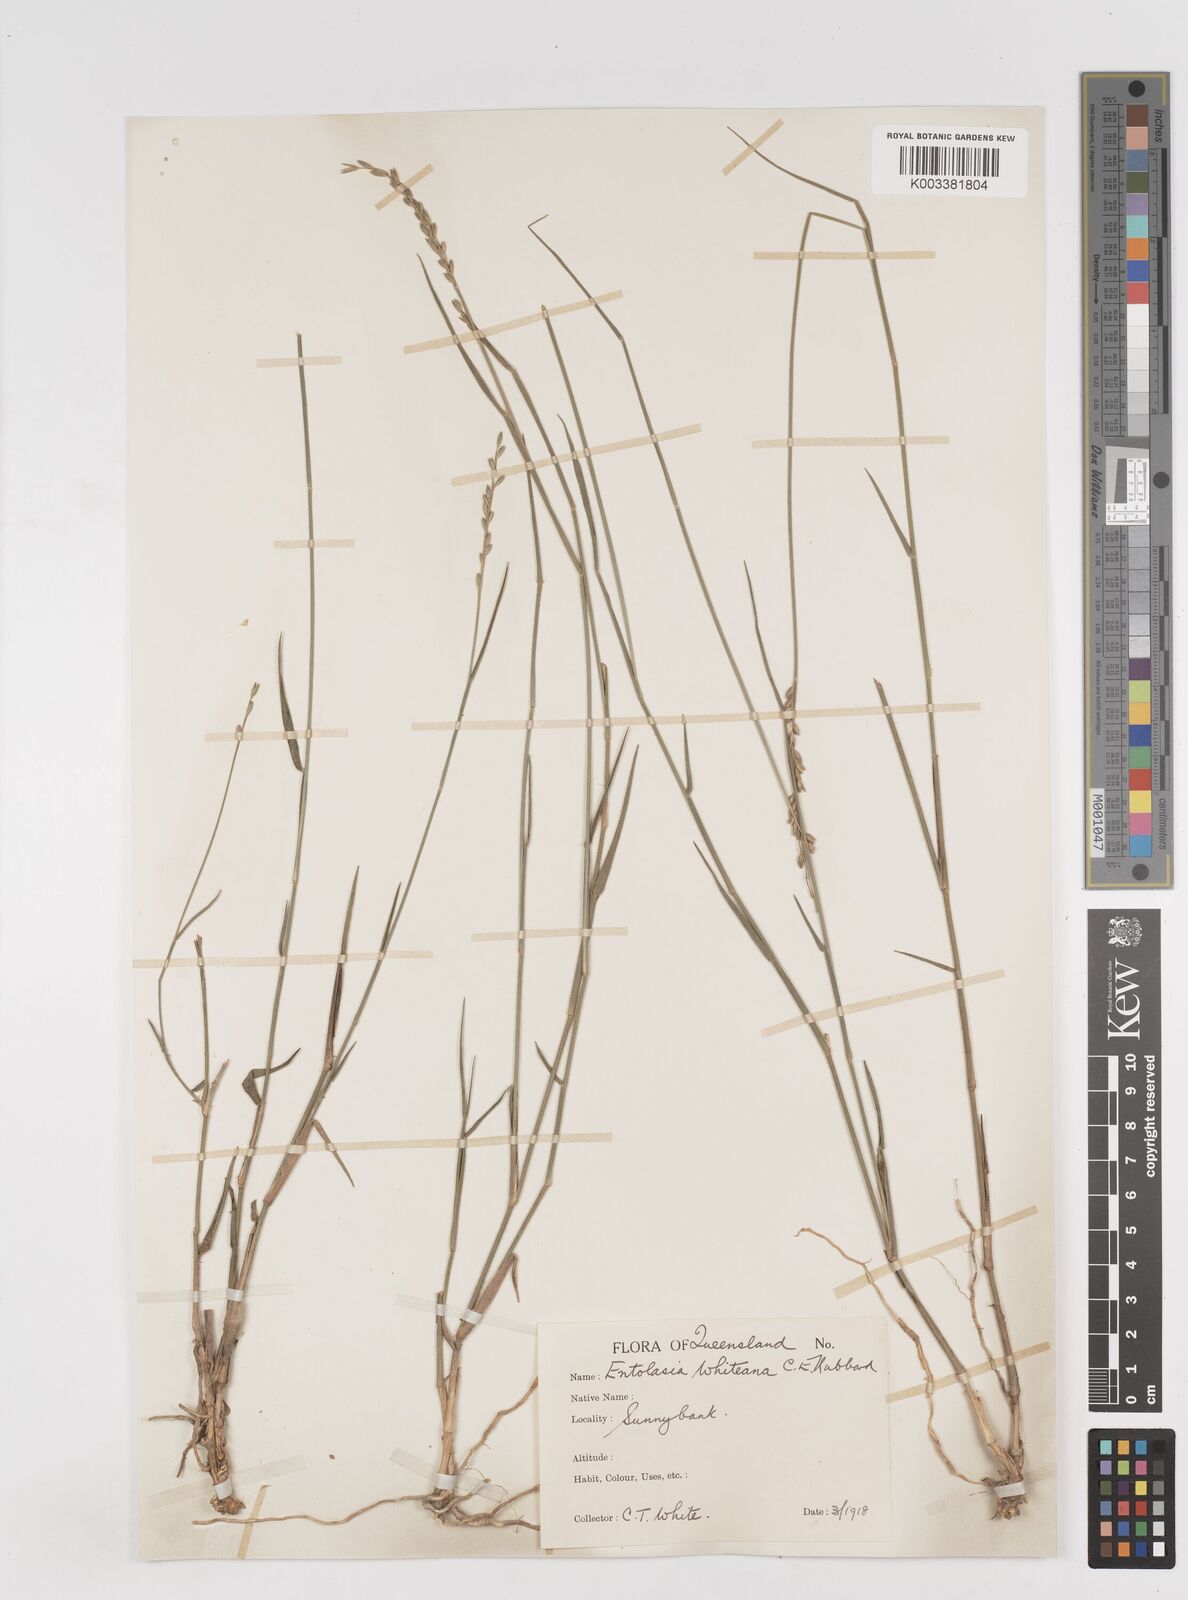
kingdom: Plantae
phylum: Tracheophyta
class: Liliopsida
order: Poales
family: Poaceae
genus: Entolasia
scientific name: Entolasia whiteana
